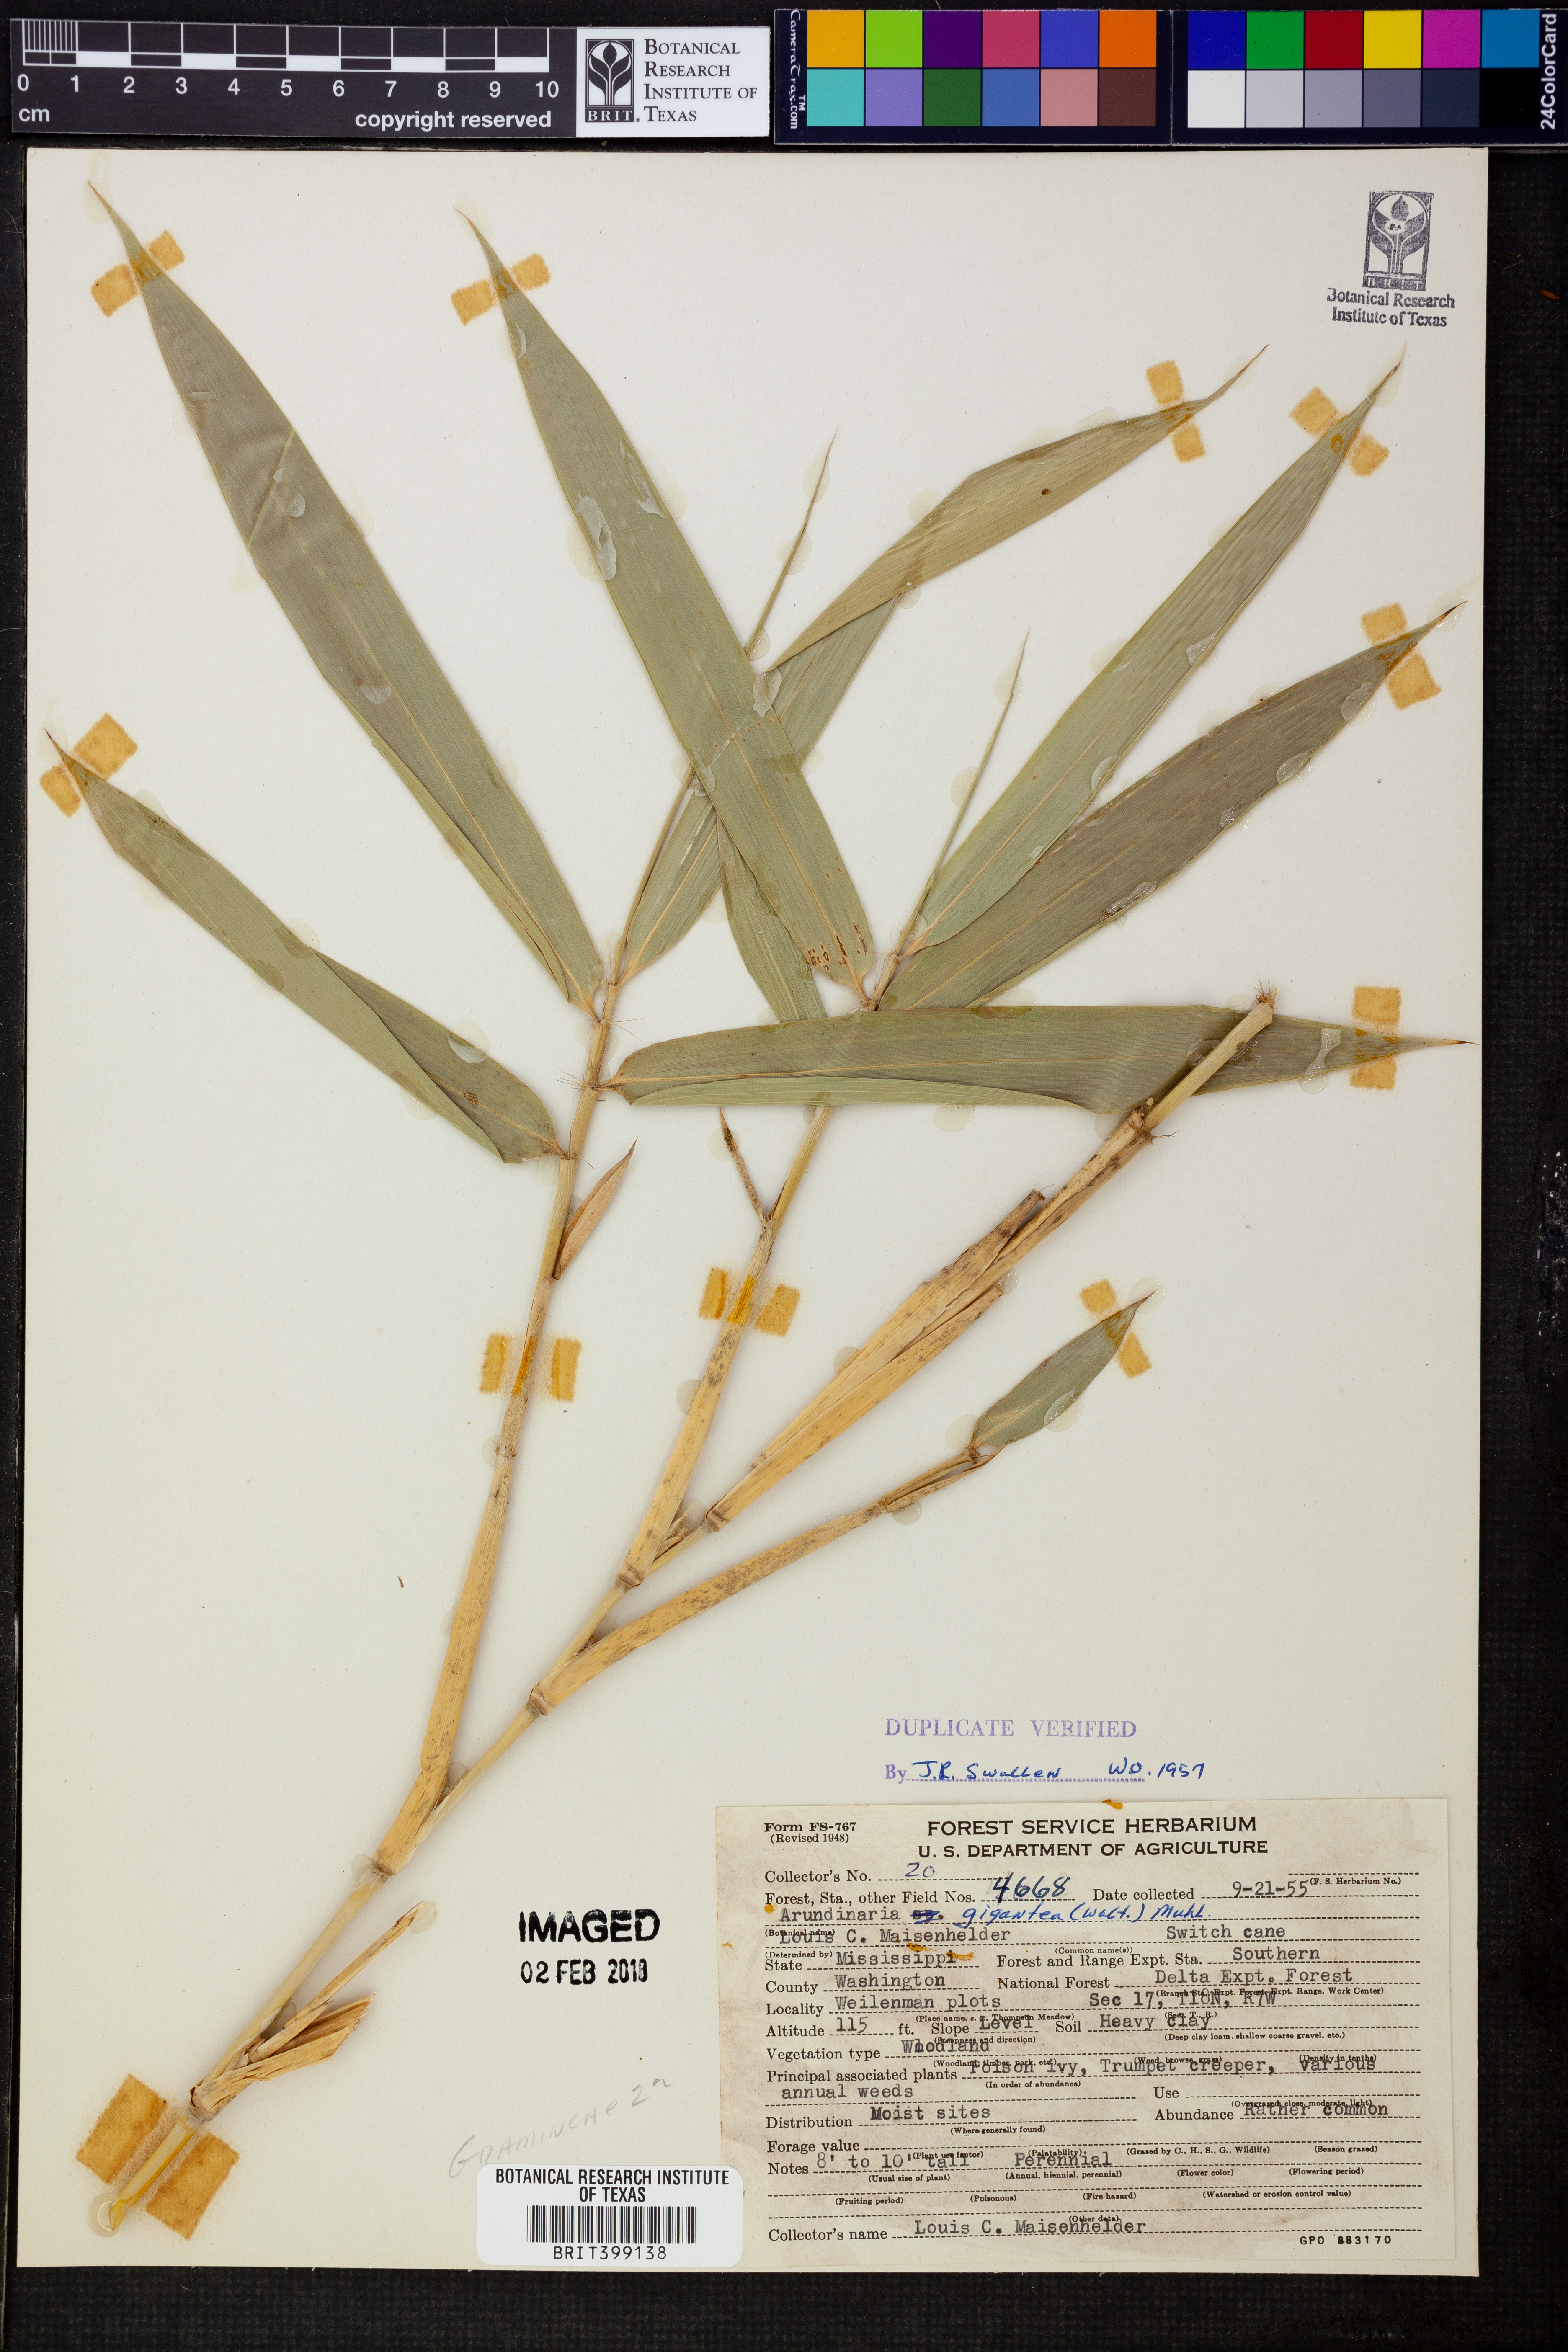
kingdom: Plantae
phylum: Tracheophyta
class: Liliopsida
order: Poales
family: Poaceae
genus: Arundinaria
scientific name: Arundinaria gigantea
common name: Giant cane
